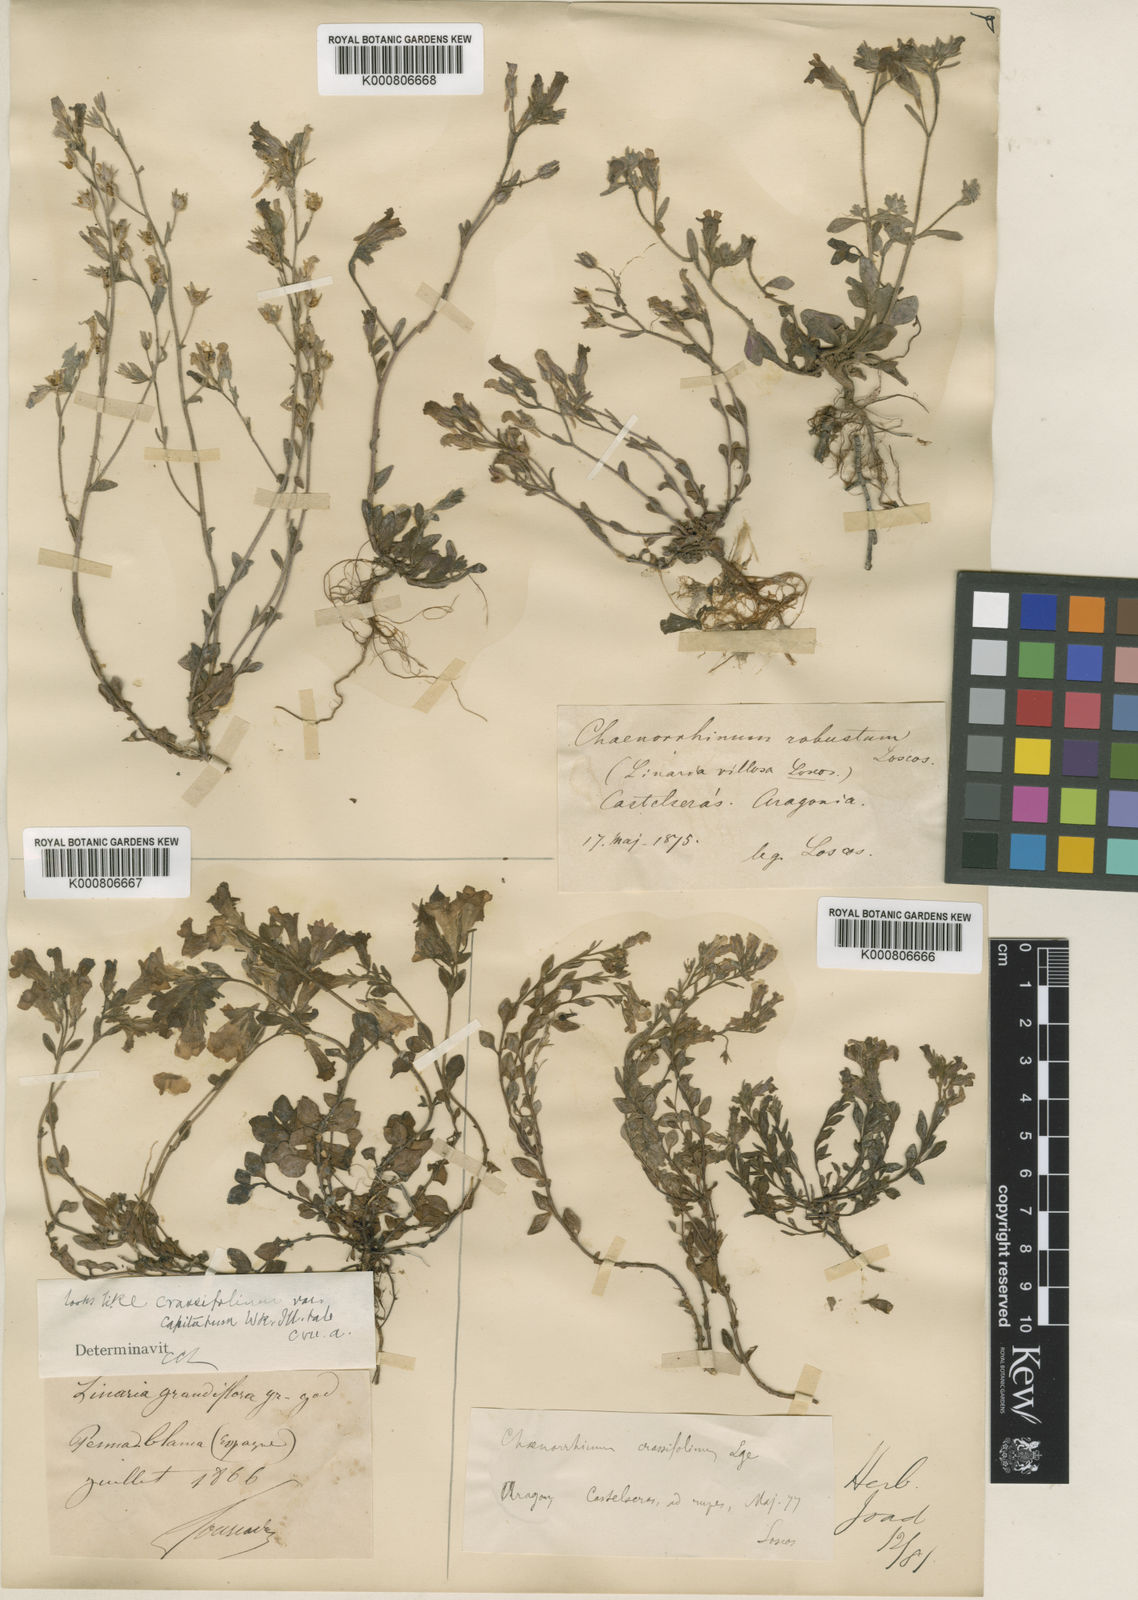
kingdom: Plantae
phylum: Tracheophyta
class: Magnoliopsida
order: Lamiales
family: Plantaginaceae
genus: Chaenorhinum
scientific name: Chaenorhinum robustum
